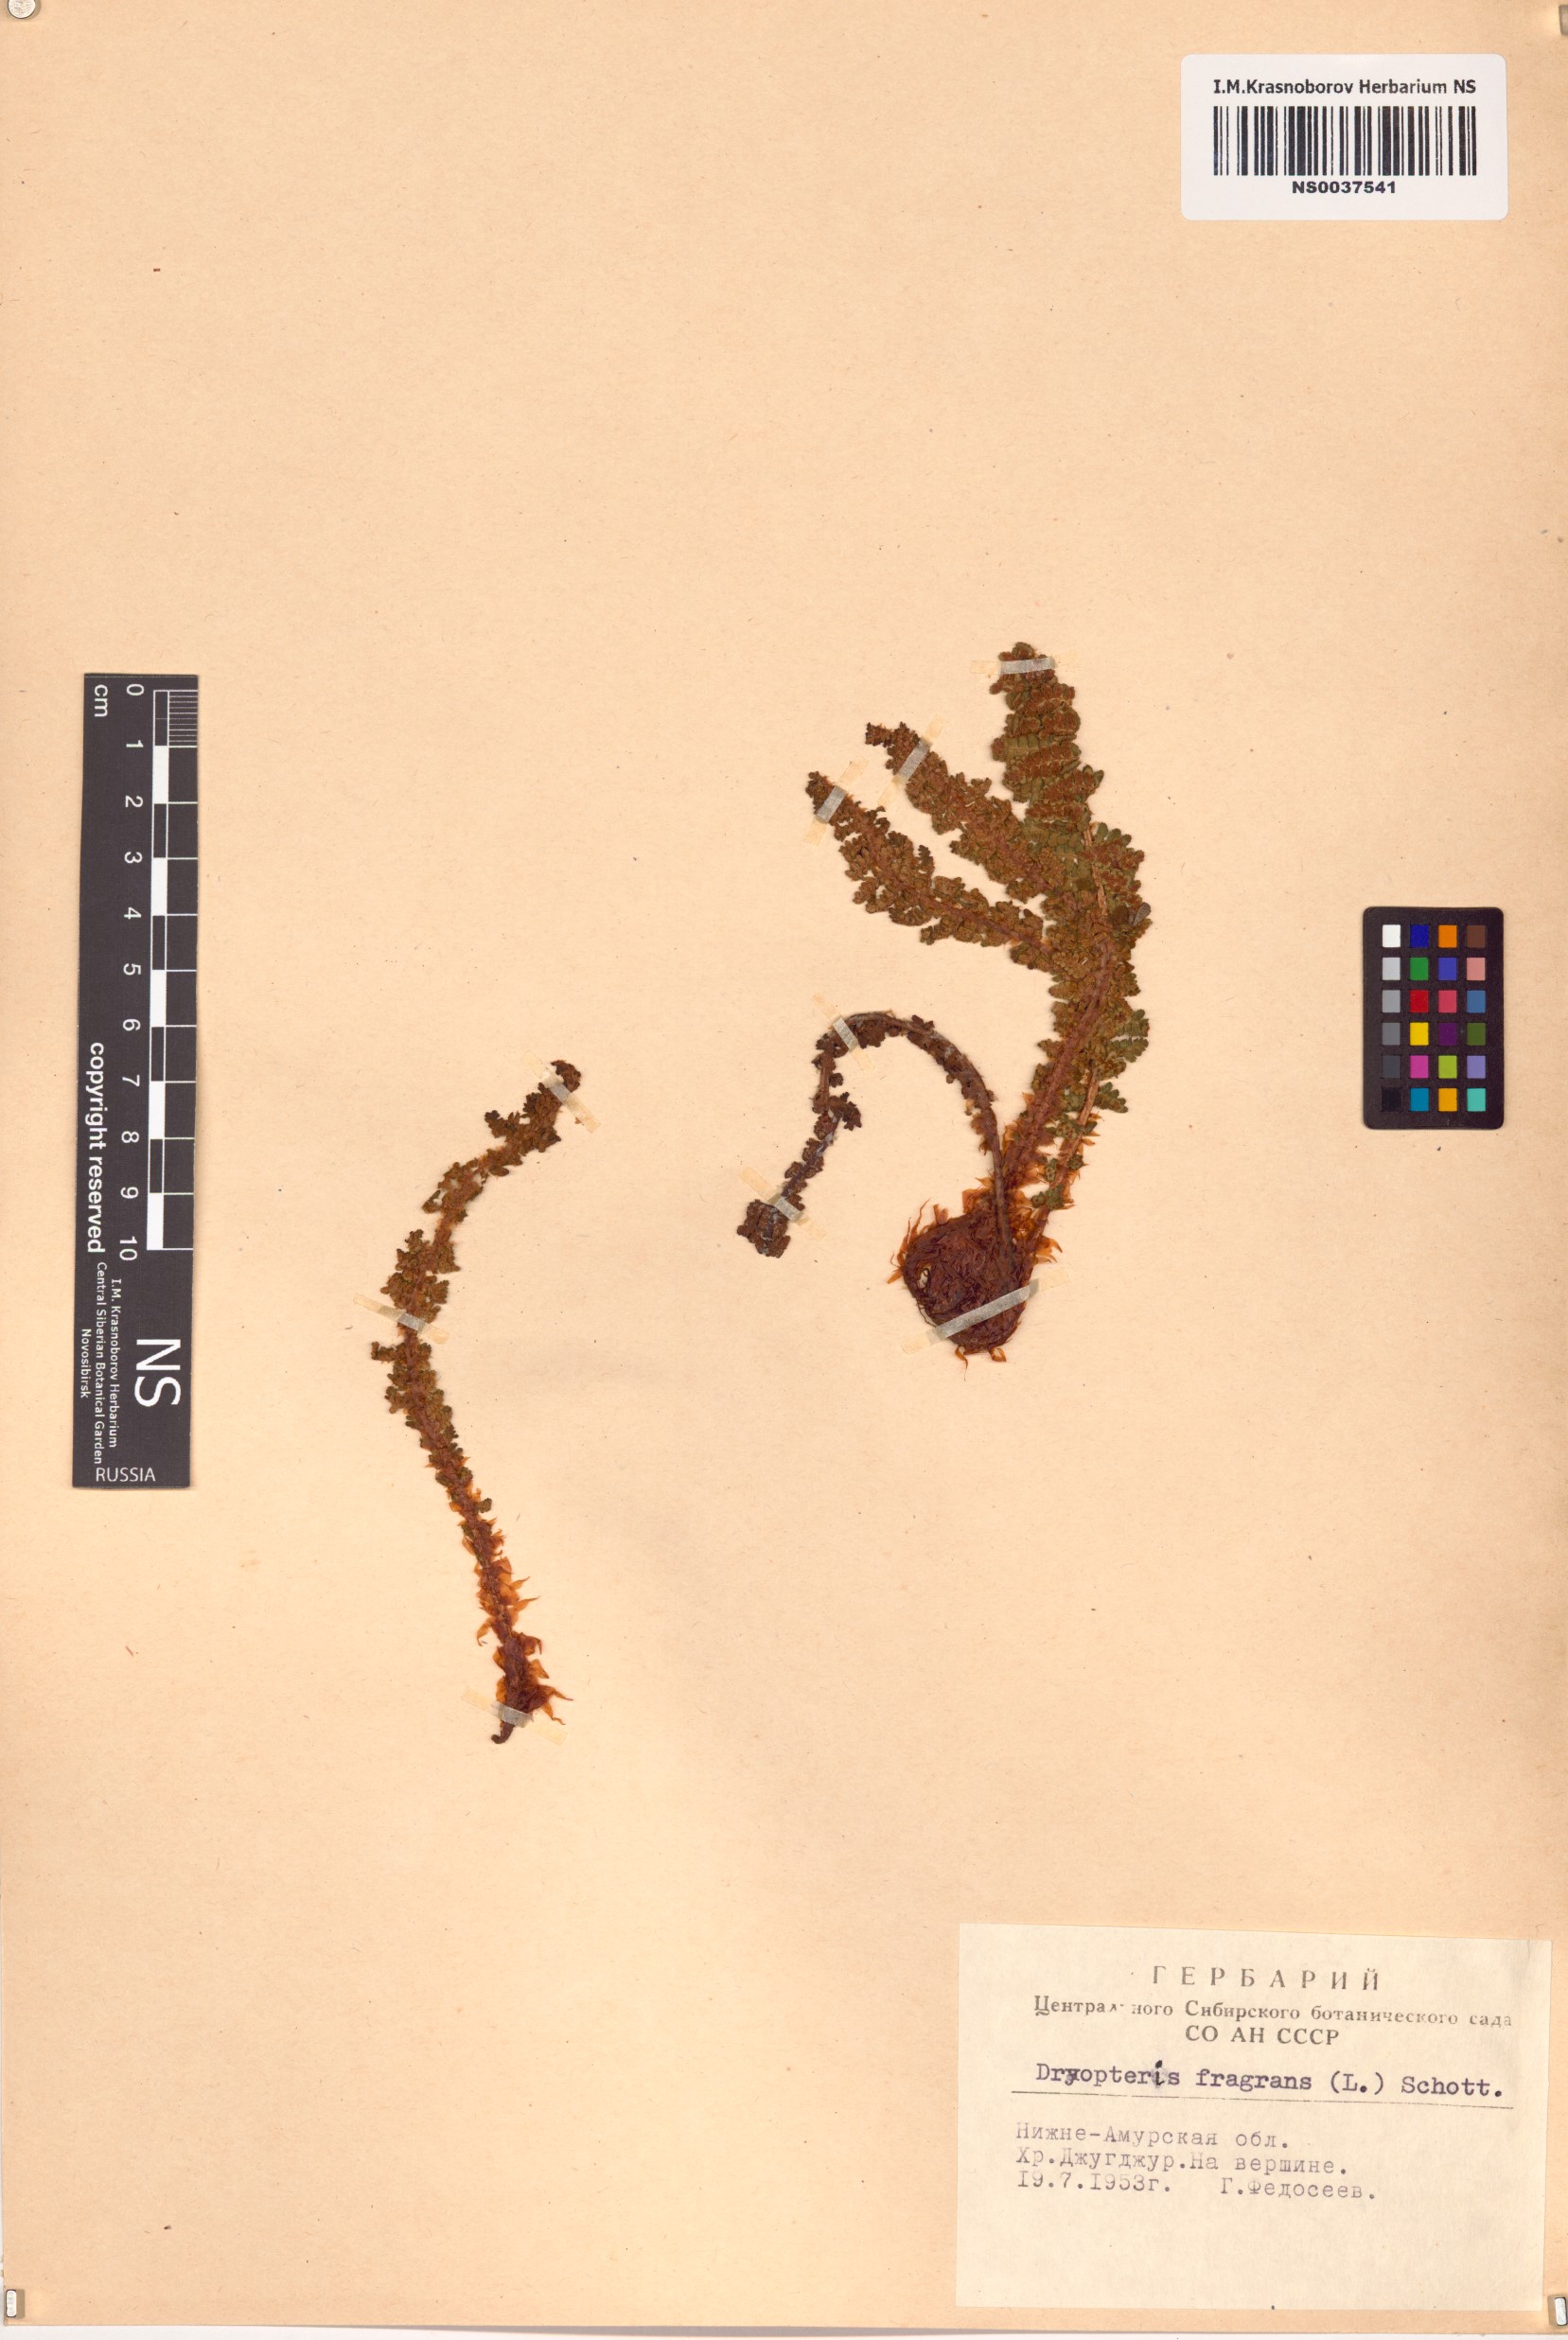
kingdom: Plantae
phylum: Tracheophyta
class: Polypodiopsida
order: Polypodiales
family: Dryopteridaceae
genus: Dryopteris
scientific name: Dryopteris fragrans
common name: Fragrant wood fern
